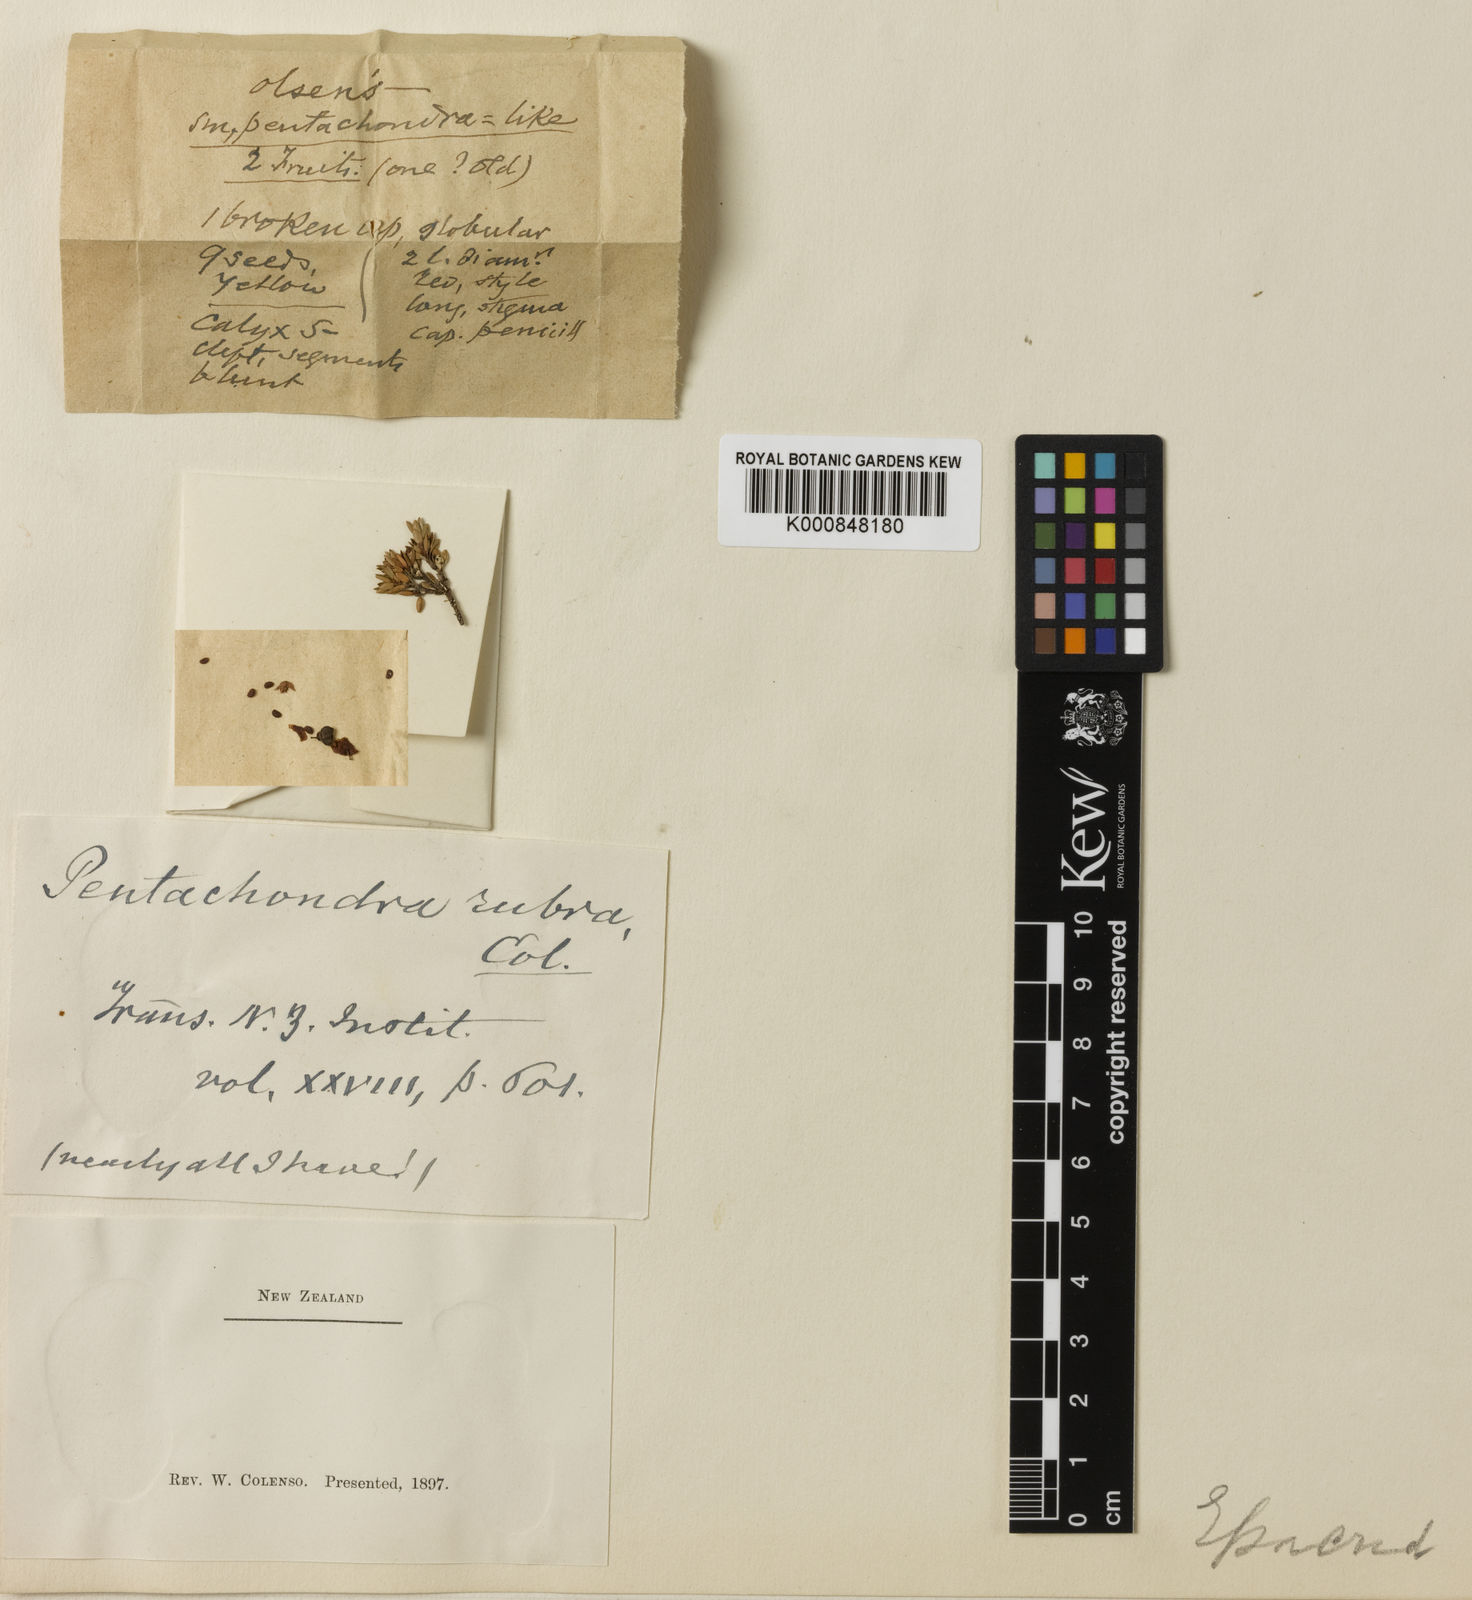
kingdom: Plantae
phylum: Tracheophyta
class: Magnoliopsida
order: Ericales
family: Ericaceae
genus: Pentachondra
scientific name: Pentachondra pumila
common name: Carpet-heath
